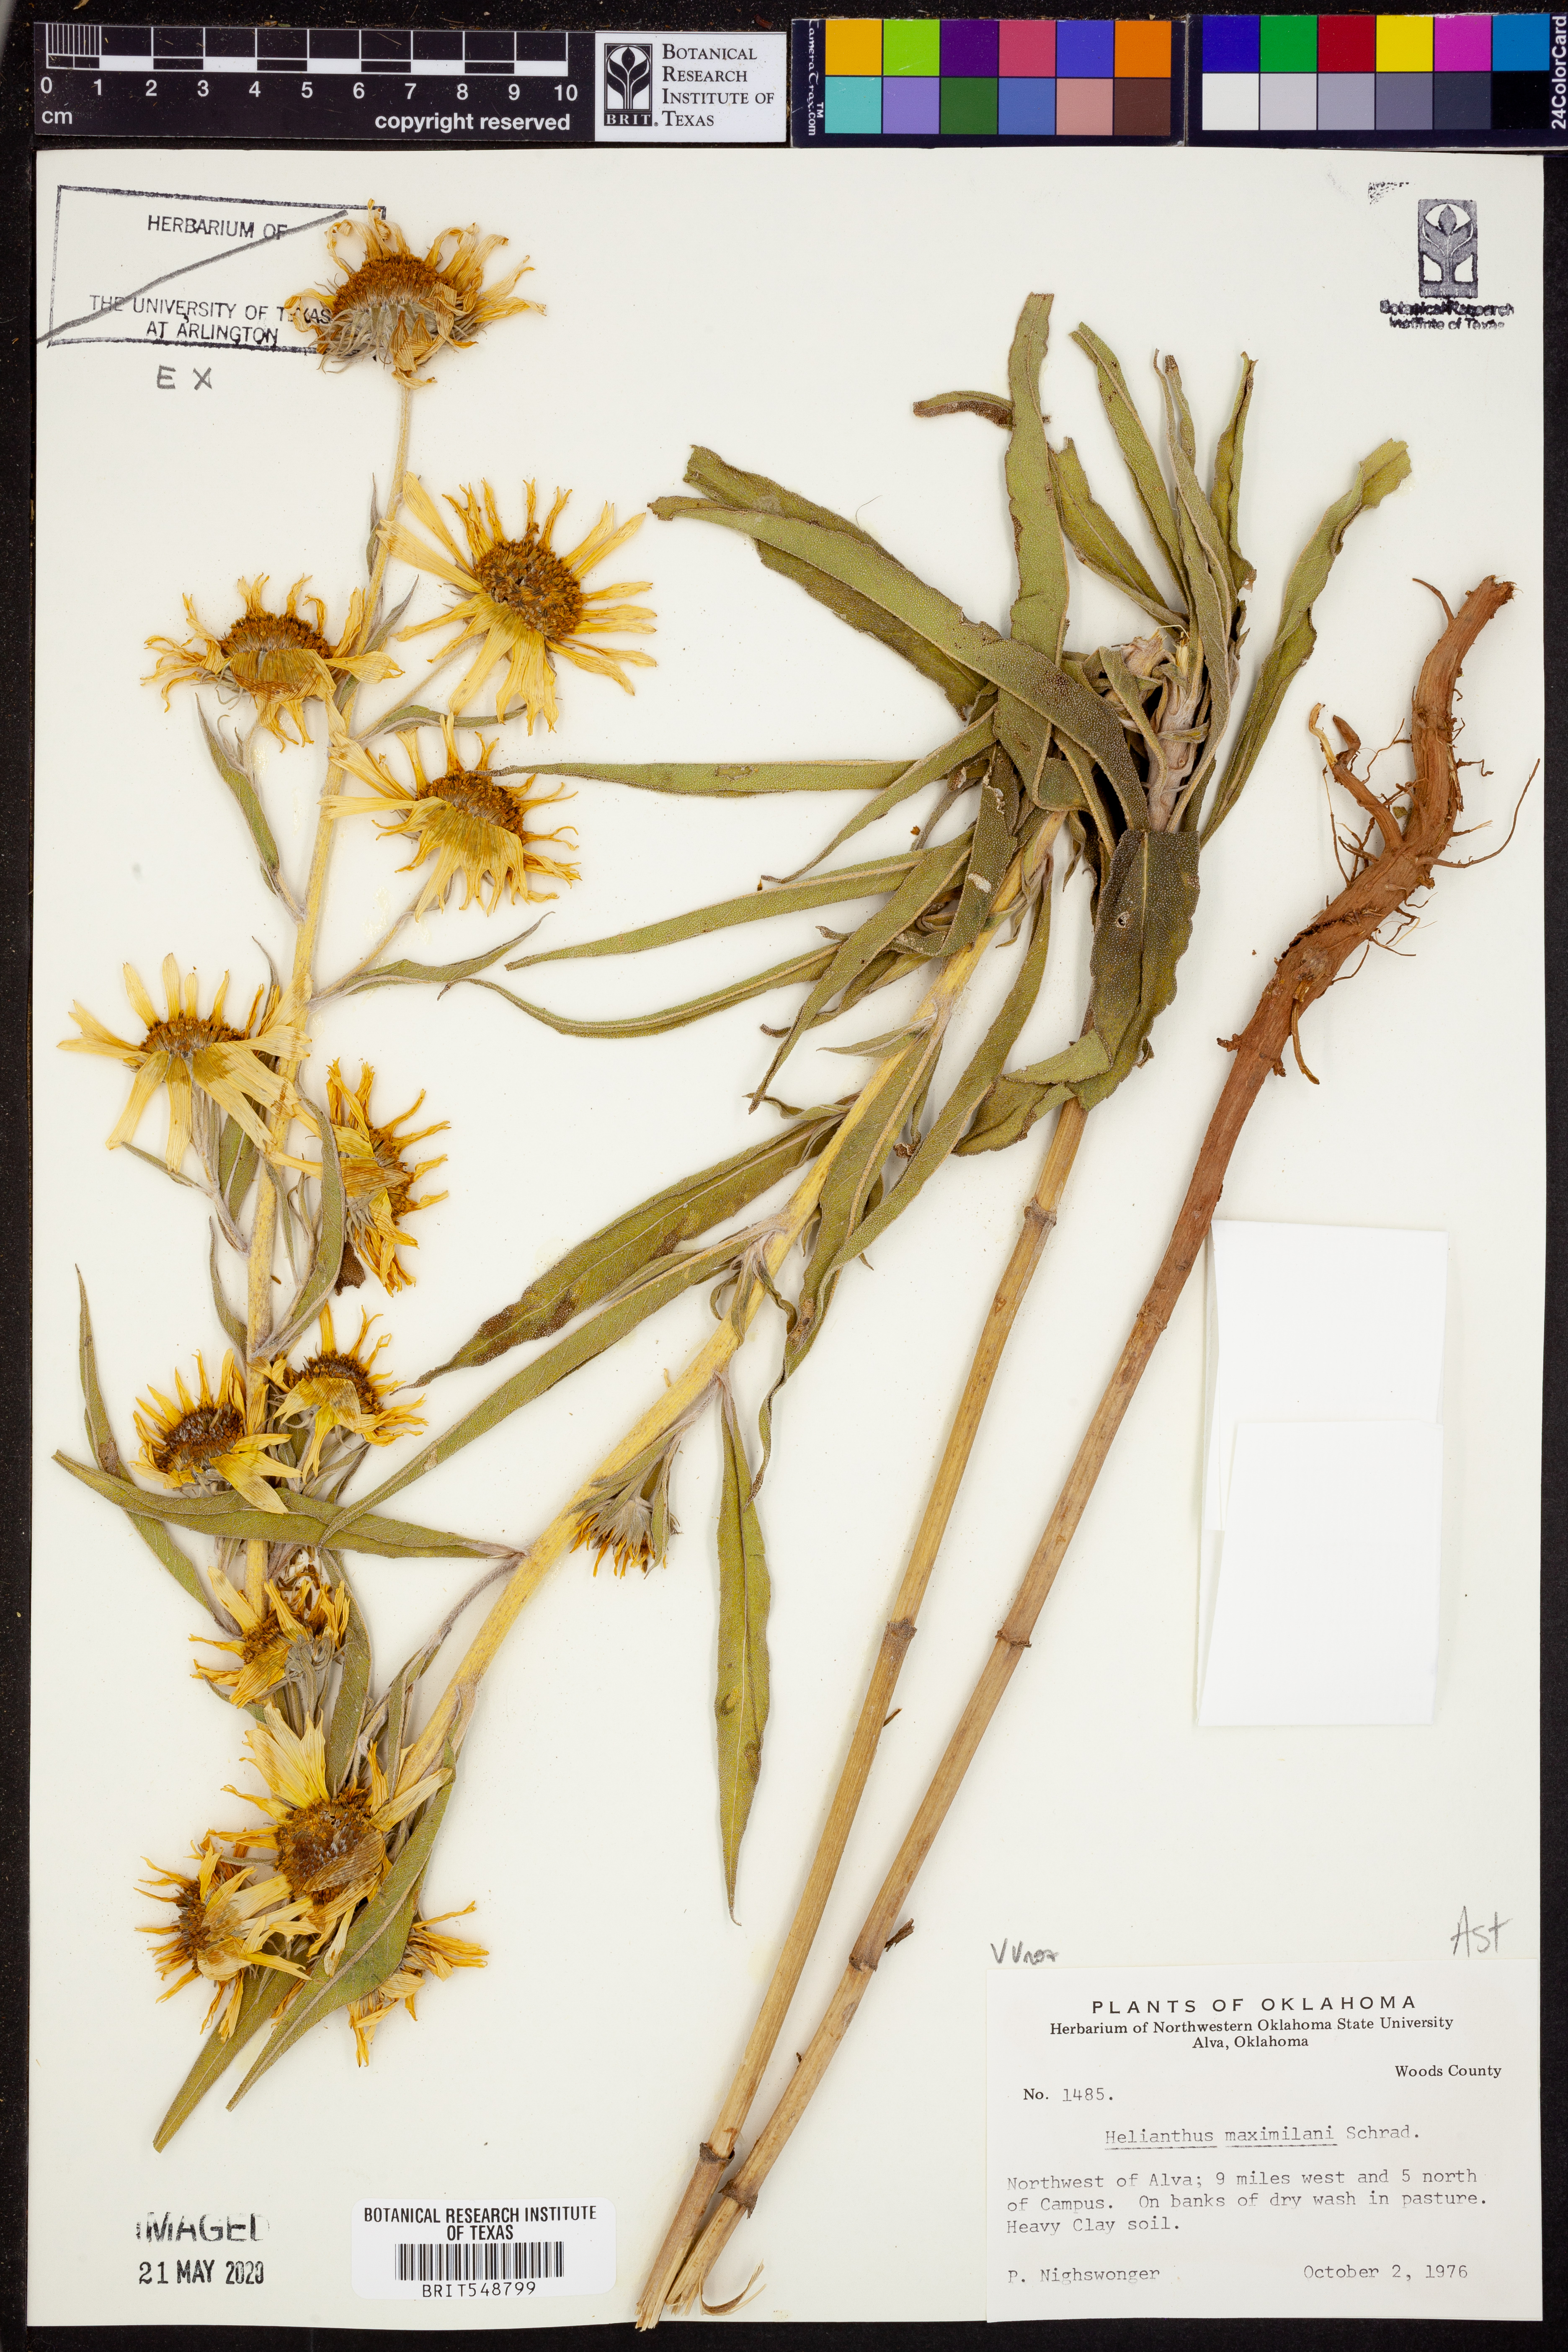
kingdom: Plantae
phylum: Tracheophyta
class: Magnoliopsida
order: Asterales
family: Asteraceae
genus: Helianthus
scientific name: Helianthus maximiliani
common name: Maximilian's sunflower
